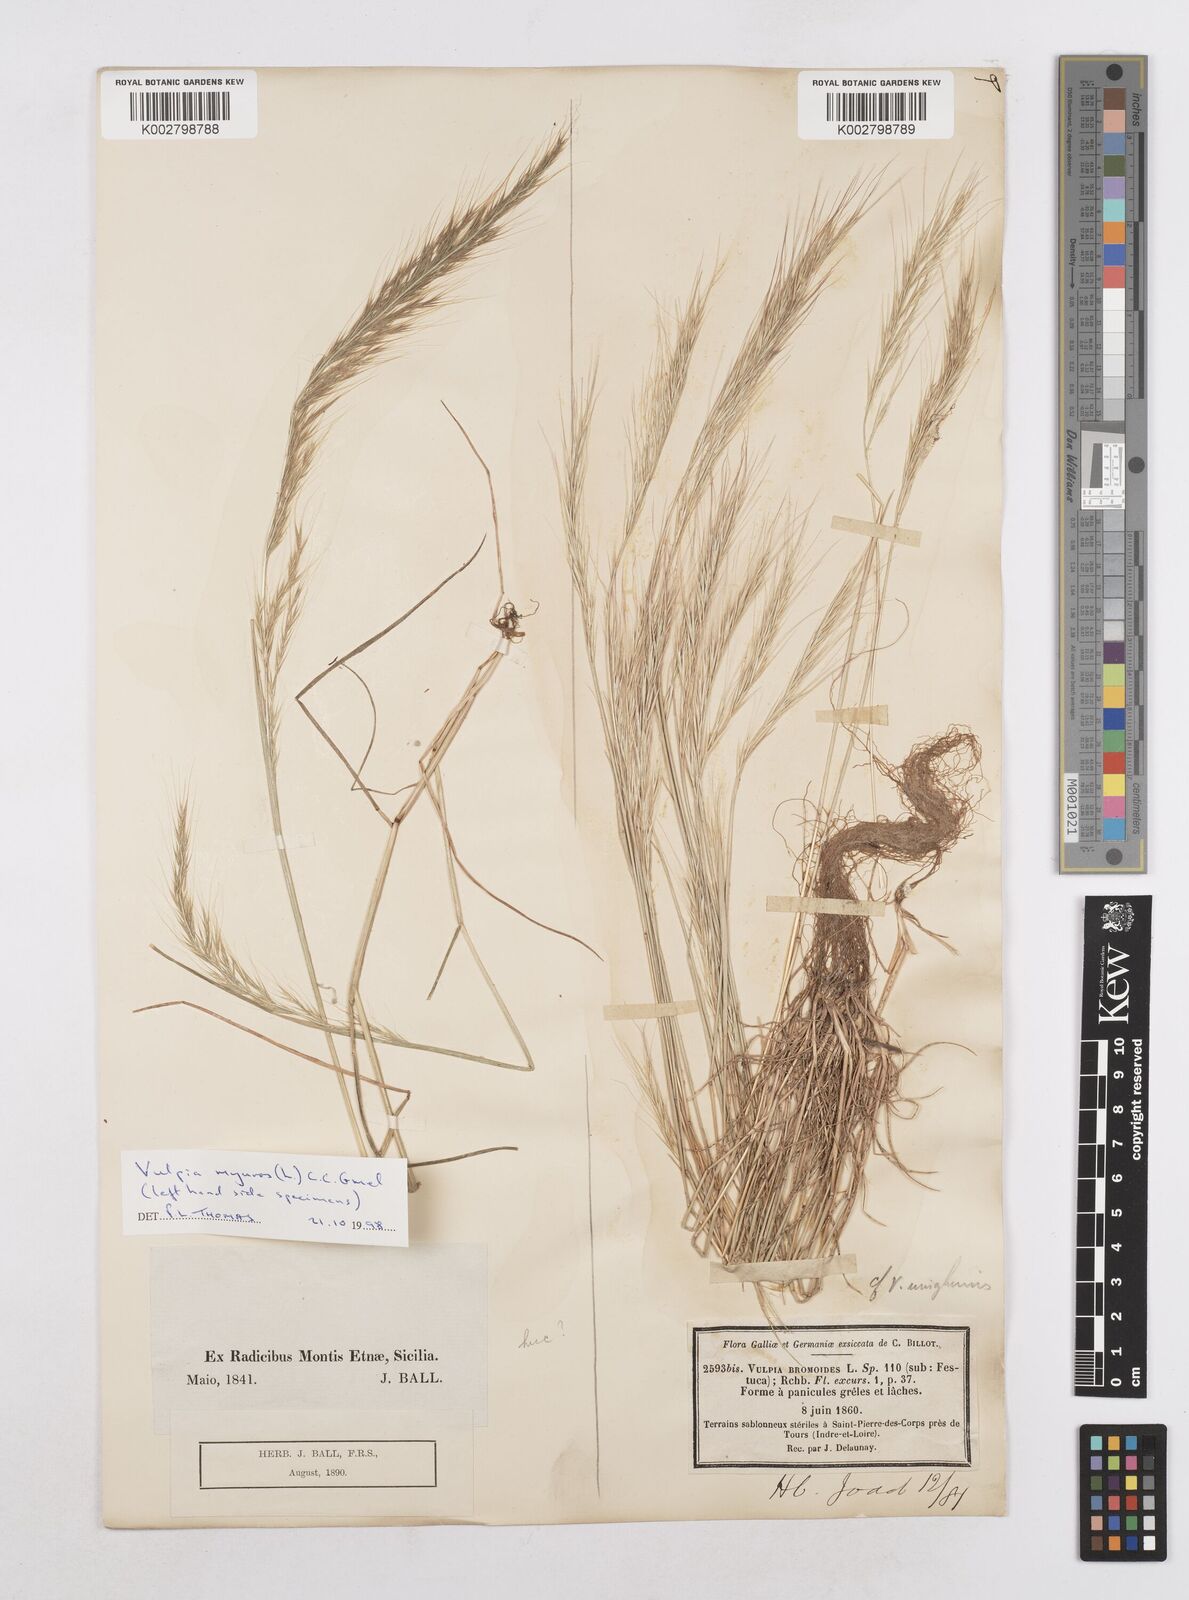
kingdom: Plantae
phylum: Tracheophyta
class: Liliopsida
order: Poales
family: Poaceae
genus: Festuca
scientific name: Festuca fasciculata
